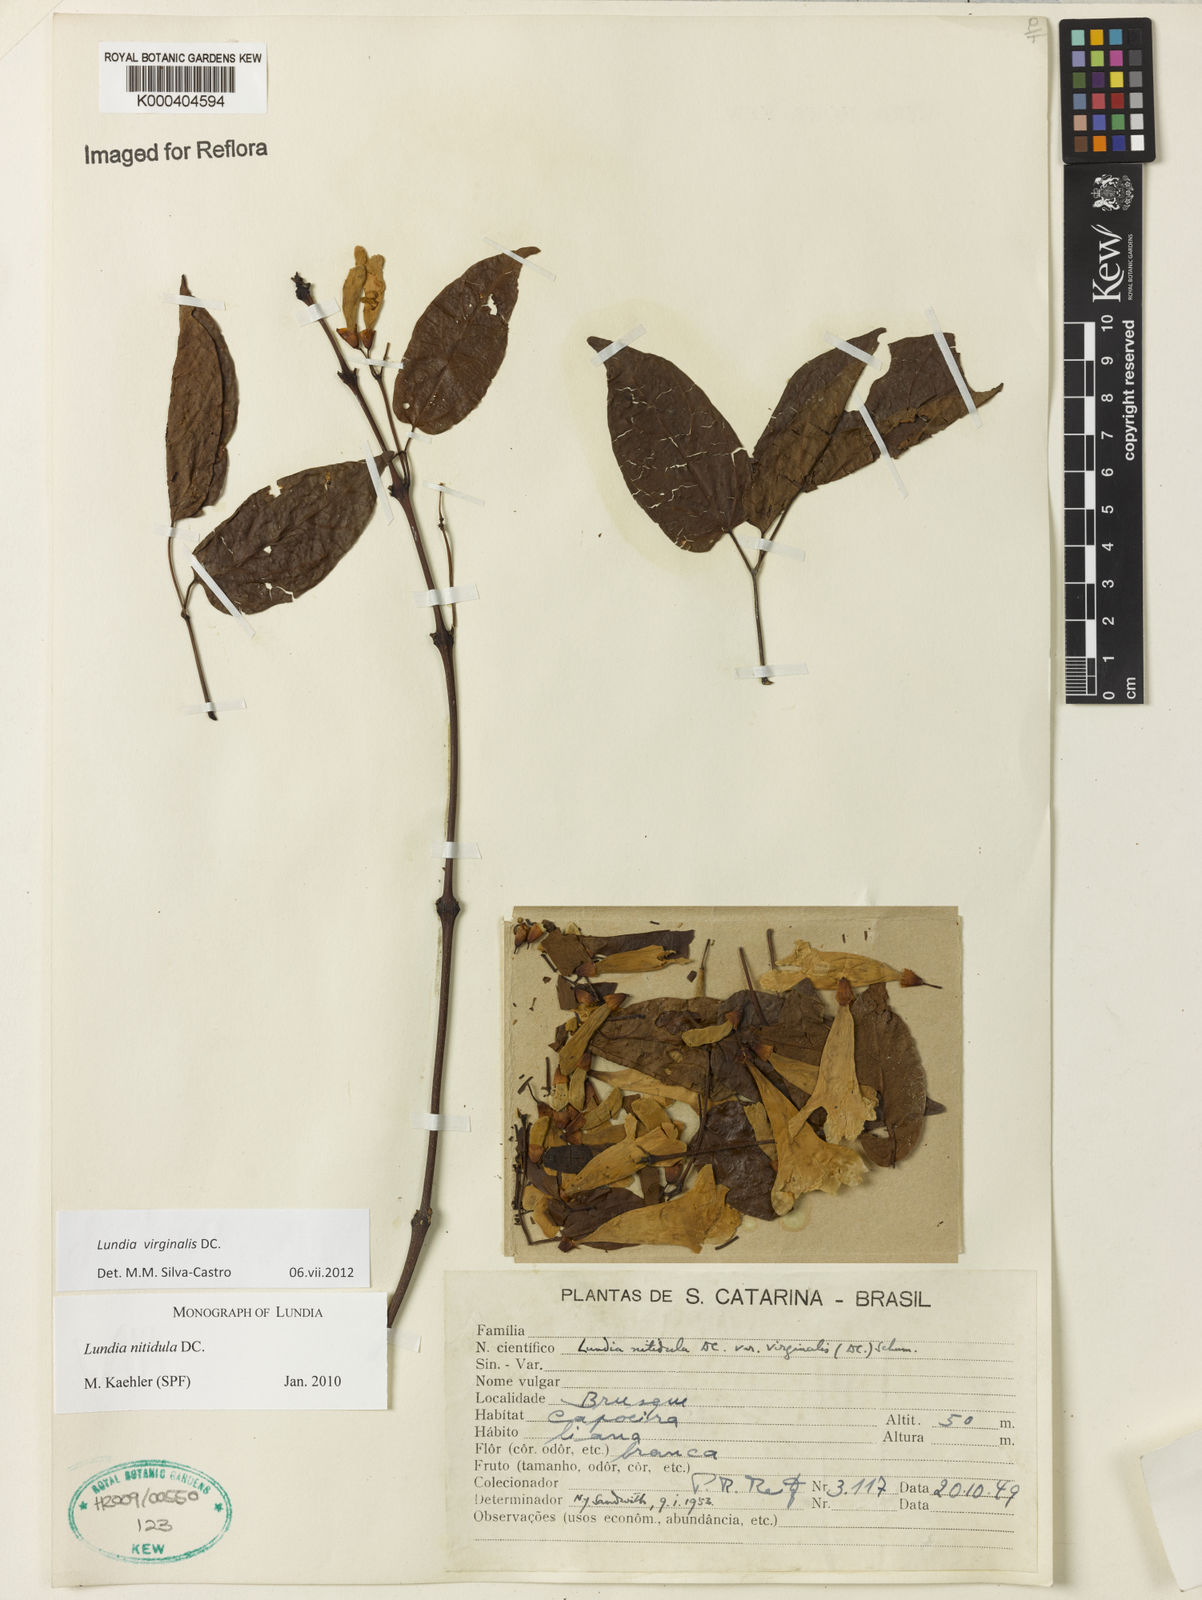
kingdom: Plantae
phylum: Tracheophyta
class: Magnoliopsida
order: Lamiales
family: Bignoniaceae
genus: Lundia
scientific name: Lundia virginalis
